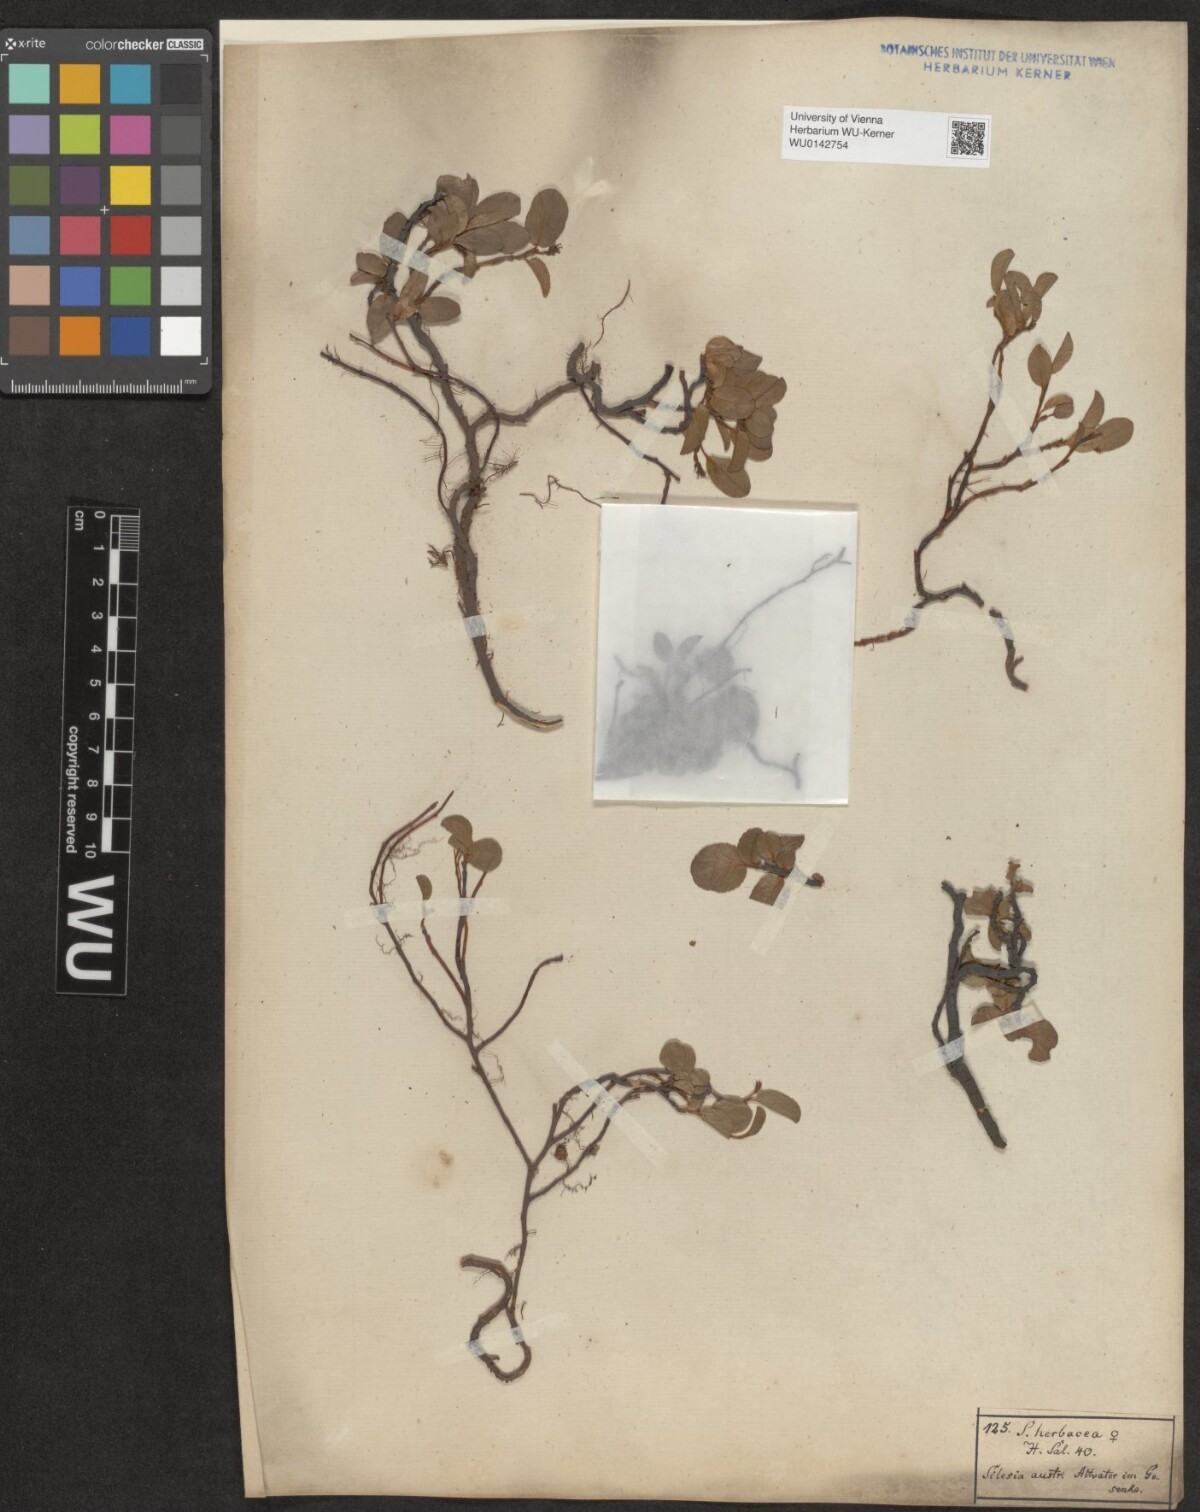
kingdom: Plantae
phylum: Tracheophyta
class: Magnoliopsida
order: Malpighiales
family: Salicaceae
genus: Salix
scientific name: Salix herbacea
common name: Dwarf willow
